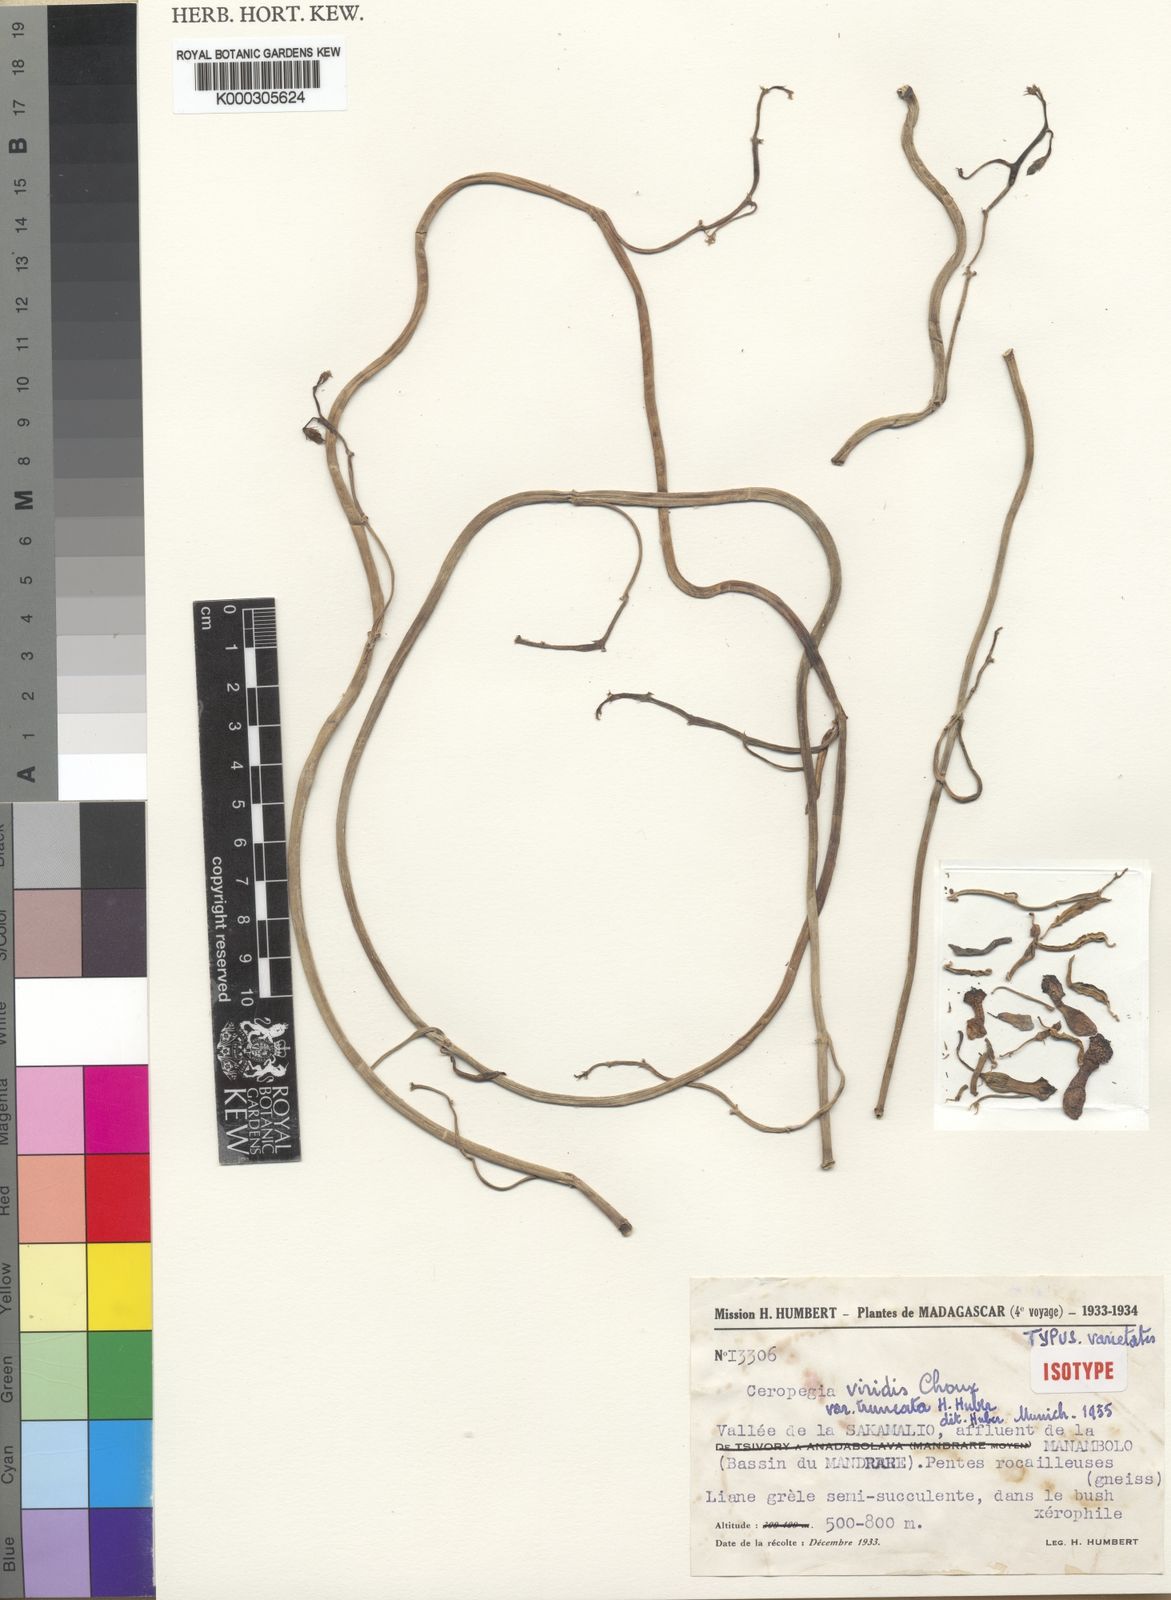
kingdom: Plantae
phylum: Tracheophyta
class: Magnoliopsida
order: Gentianales
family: Apocynaceae
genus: Ceropegia
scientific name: Ceropegia albisepta
